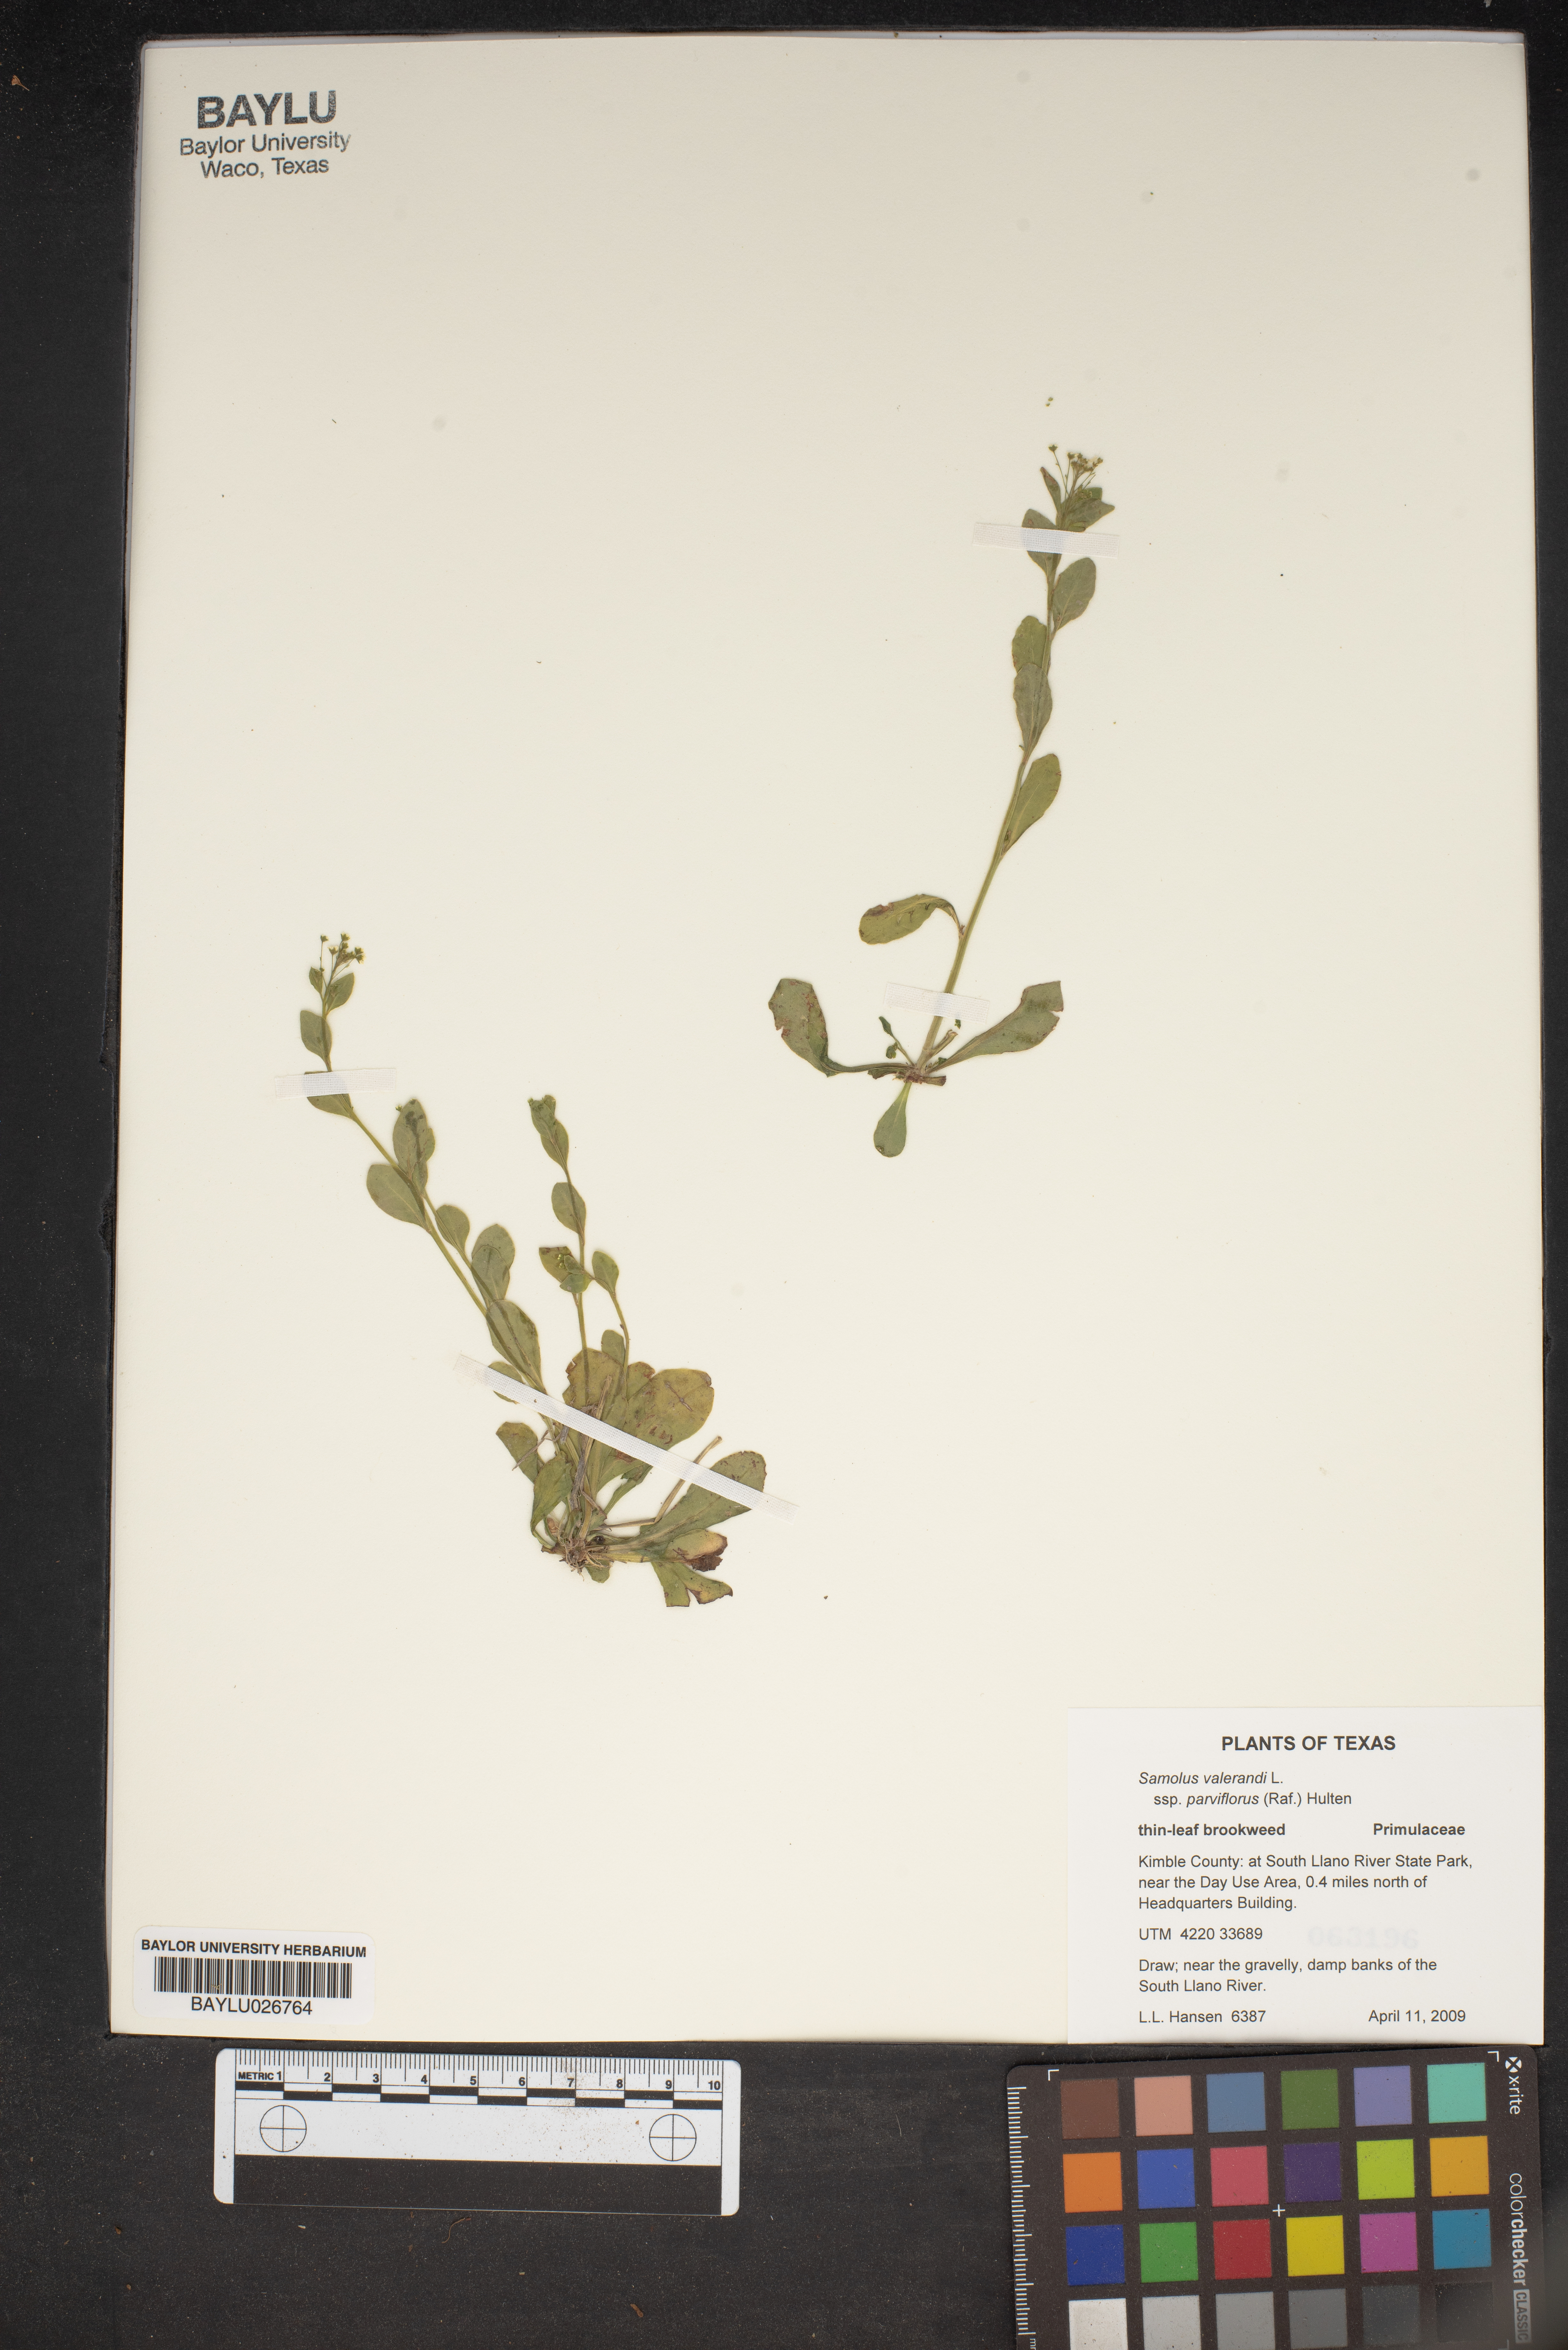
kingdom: Plantae
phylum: Tracheophyta
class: Magnoliopsida
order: Ericales
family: Primulaceae
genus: Samolus
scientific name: Samolus parviflorus
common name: False water pimpernel
